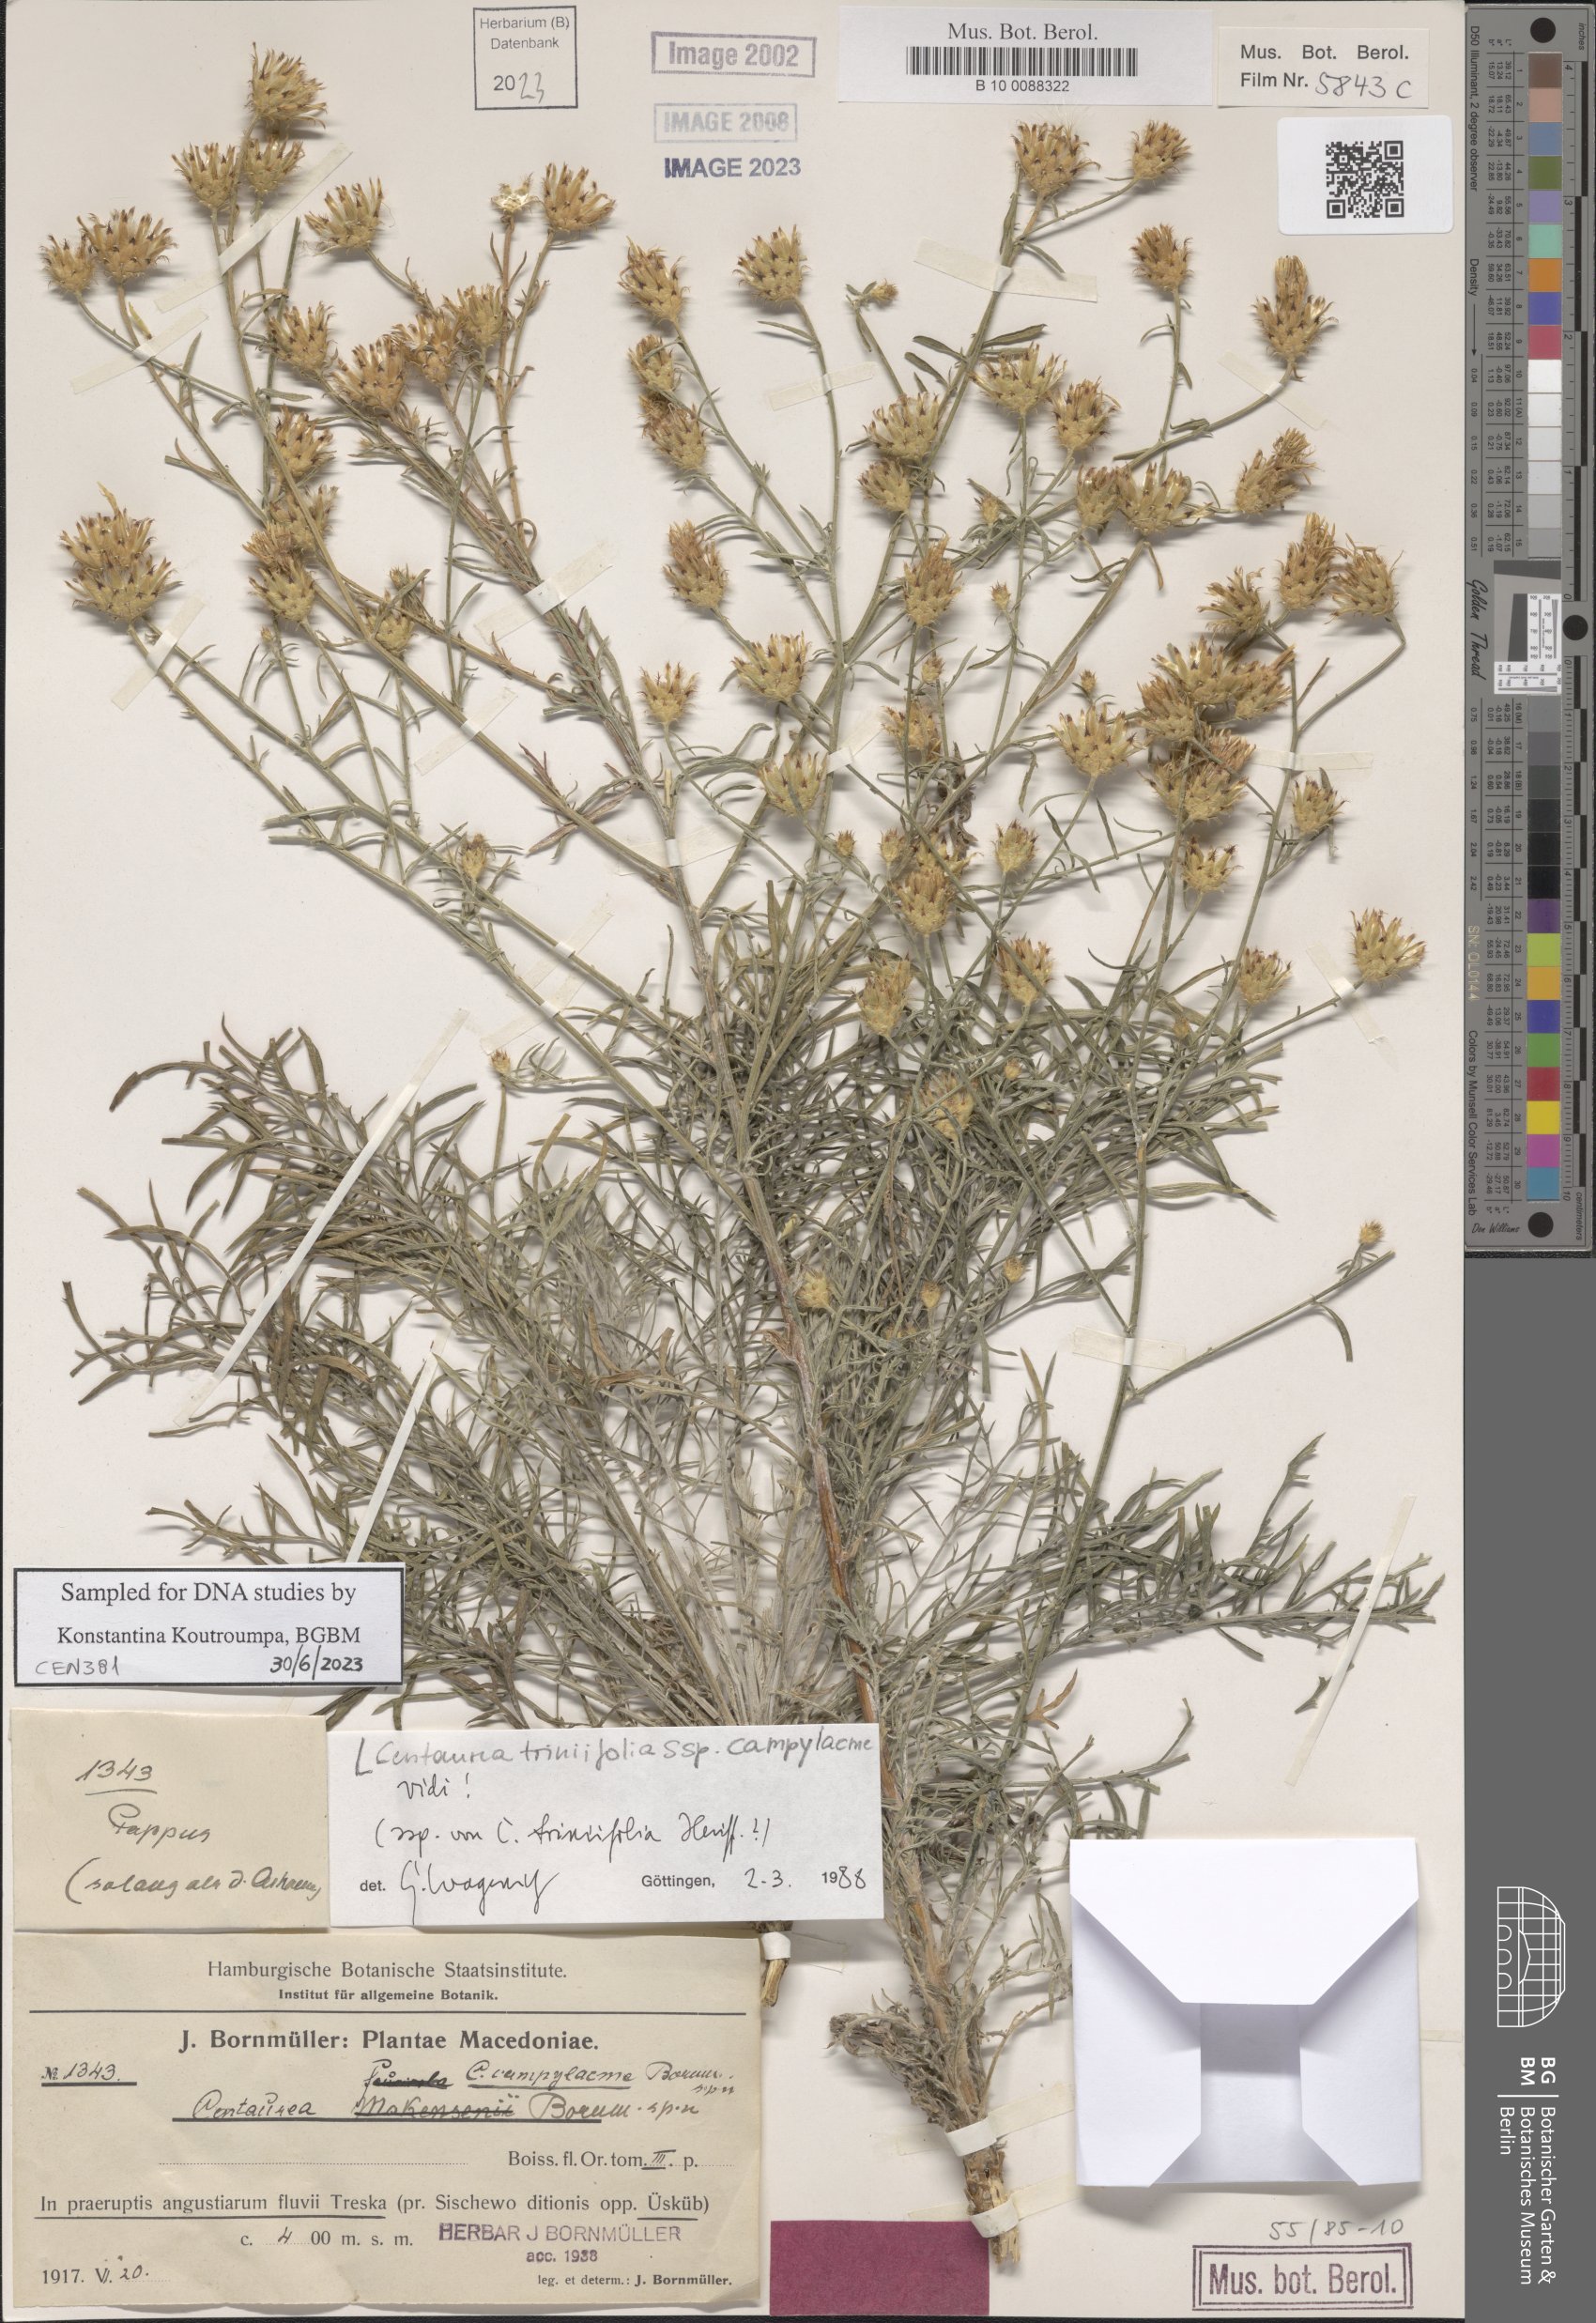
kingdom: Plantae
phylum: Tracheophyta
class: Magnoliopsida
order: Asterales
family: Asteraceae
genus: Centaurea
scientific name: Centaurea triniifolia
